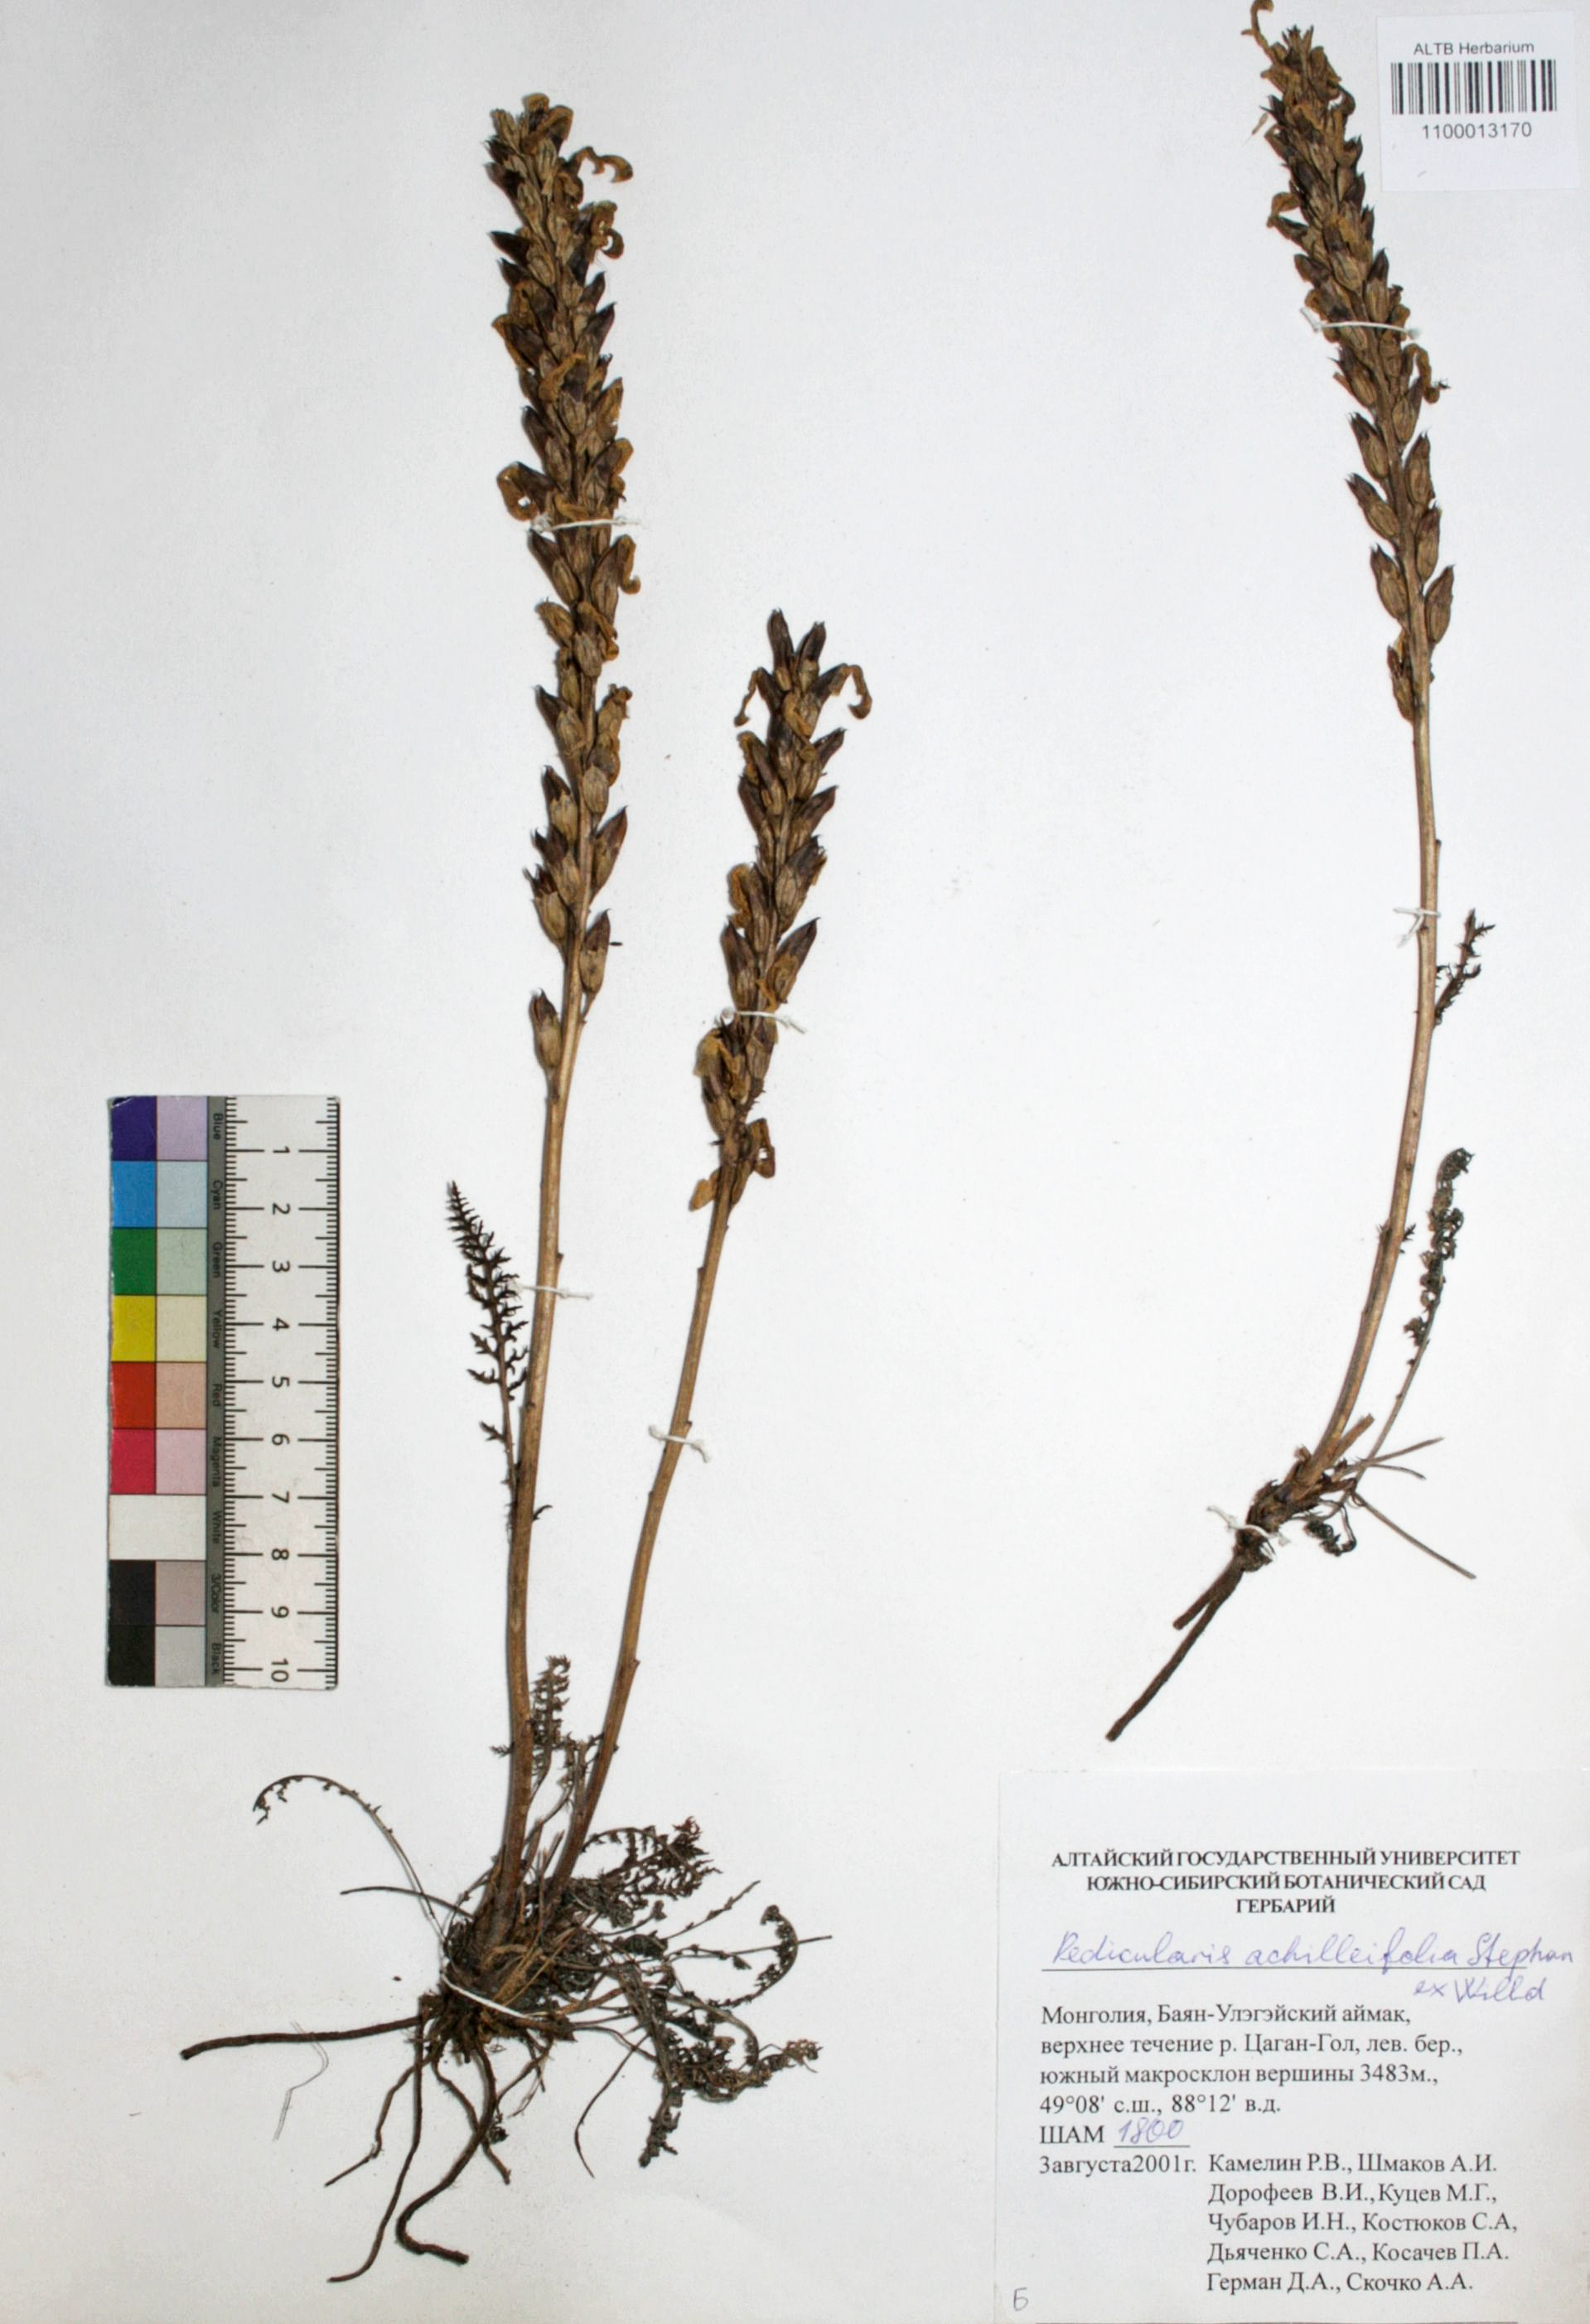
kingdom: Plantae
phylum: Tracheophyta
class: Magnoliopsida
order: Lamiales
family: Orobanchaceae
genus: Pedicularis
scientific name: Pedicularis achilleifolia
